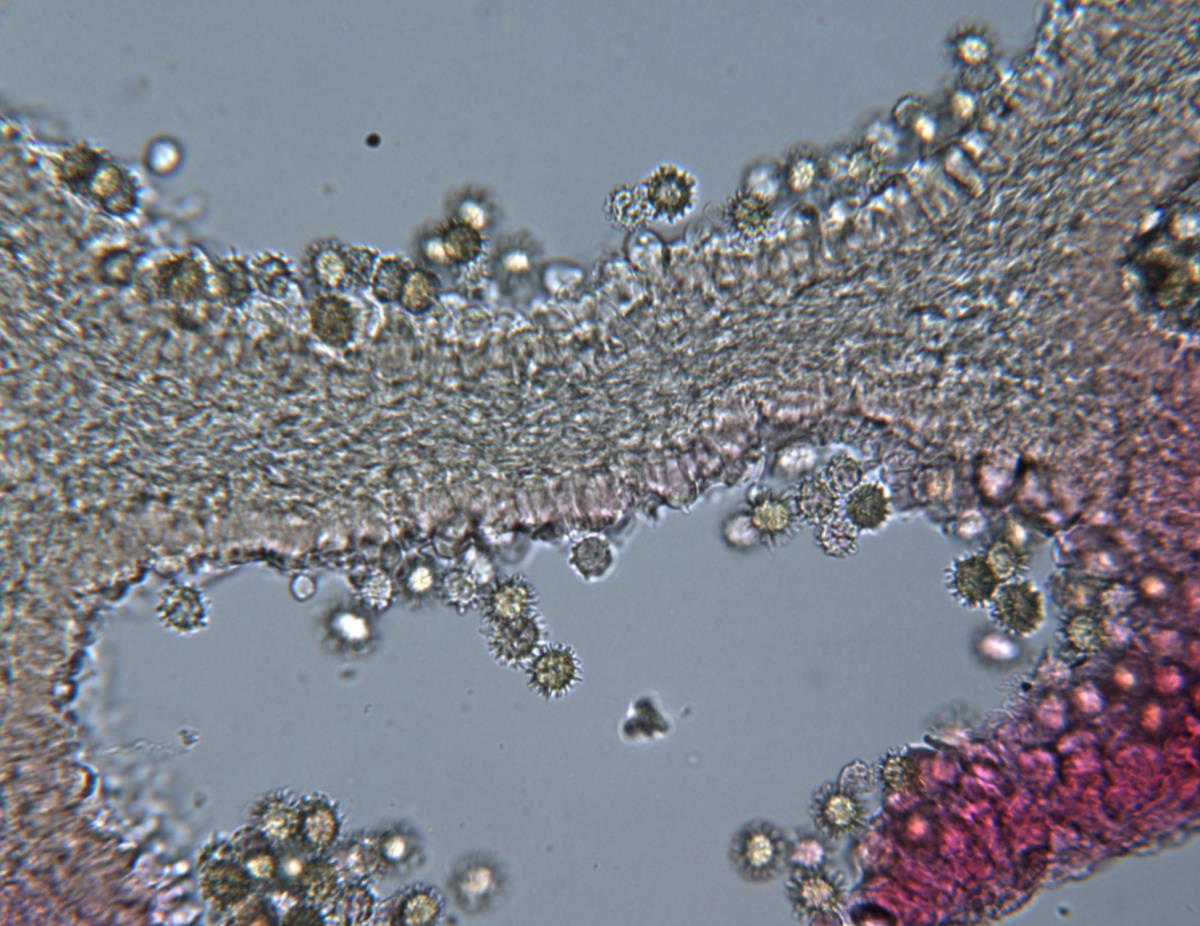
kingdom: Fungi
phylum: Basidiomycota
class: Agaricomycetes
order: Russulales
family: Russulaceae
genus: Russula
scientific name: Russula osphranticarpa
